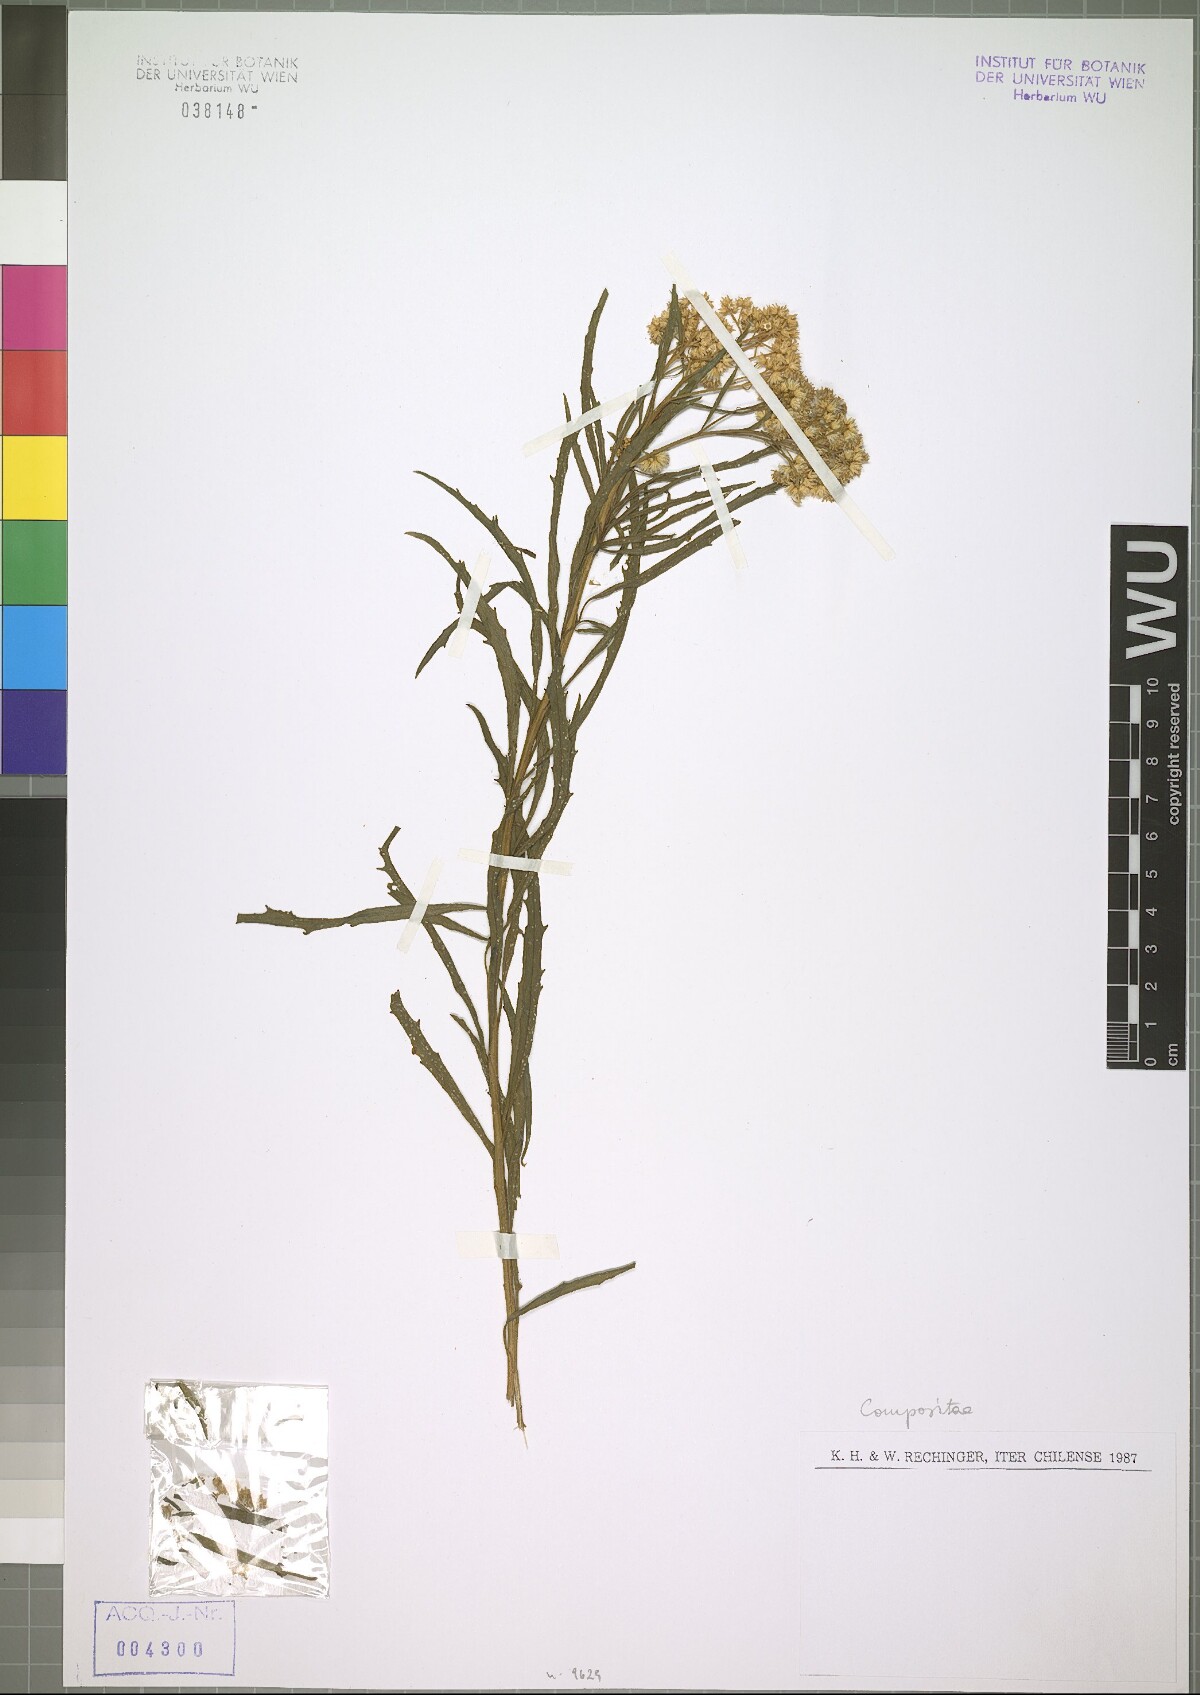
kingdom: Plantae
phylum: Tracheophyta
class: Magnoliopsida
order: Asterales
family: Asteraceae
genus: Baccharis
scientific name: Baccharis salicifolia
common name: Sticky baccharis
